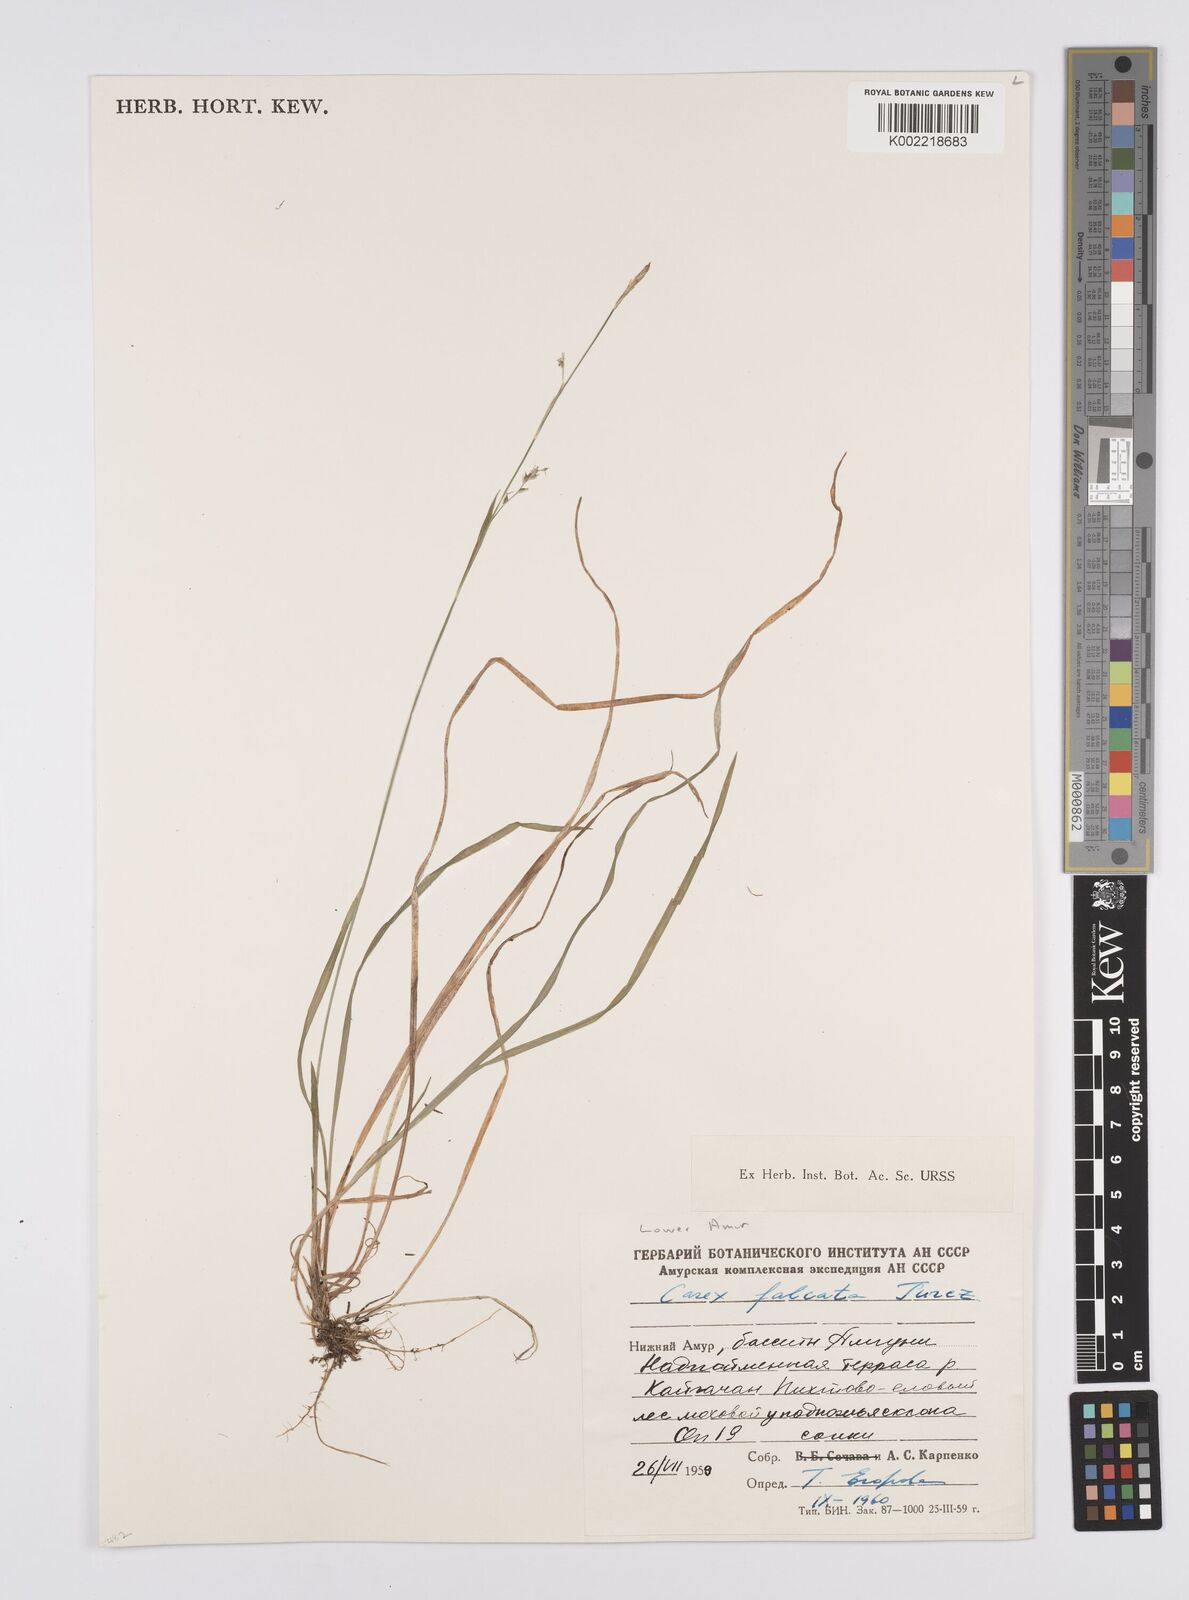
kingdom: Plantae
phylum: Tracheophyta
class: Liliopsida
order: Poales
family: Cyperaceae
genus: Carex
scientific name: Carex vaginata
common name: Sheathed sedge
